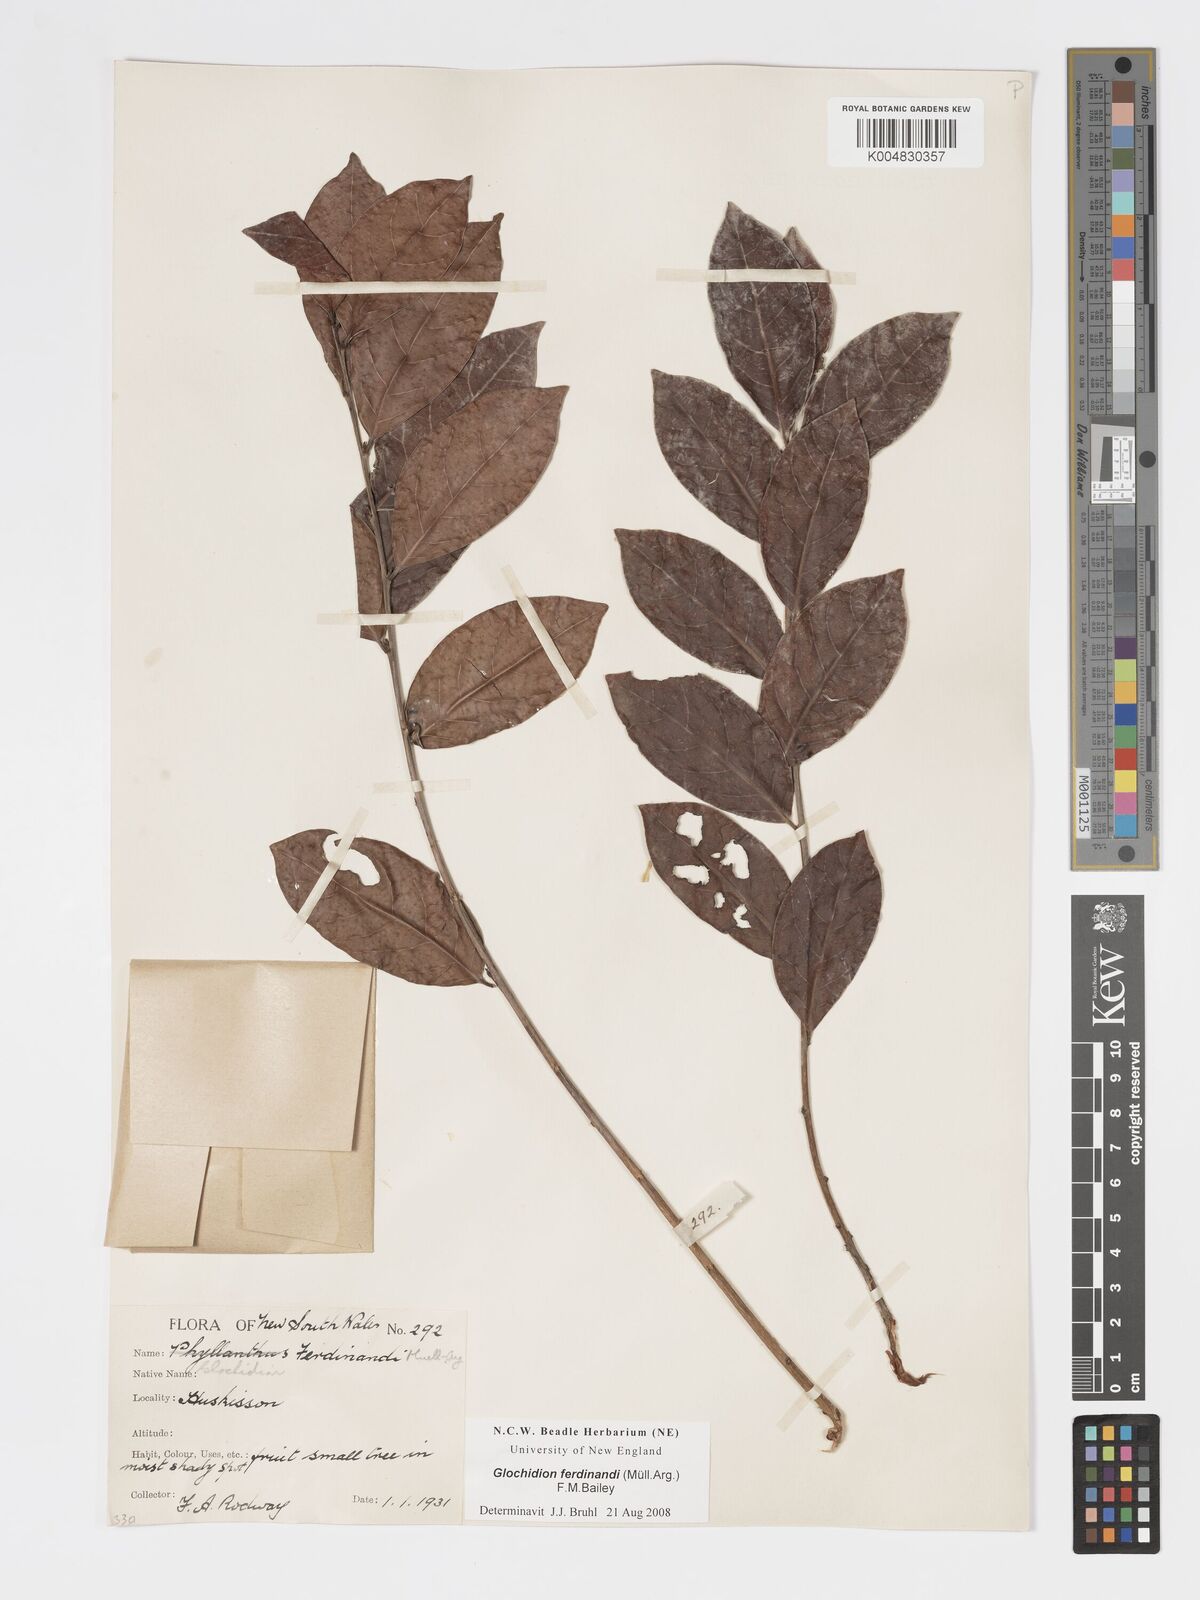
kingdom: Plantae
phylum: Tracheophyta
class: Magnoliopsida
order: Malpighiales
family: Phyllanthaceae
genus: Glochidion
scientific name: Glochidion ferdinandi
